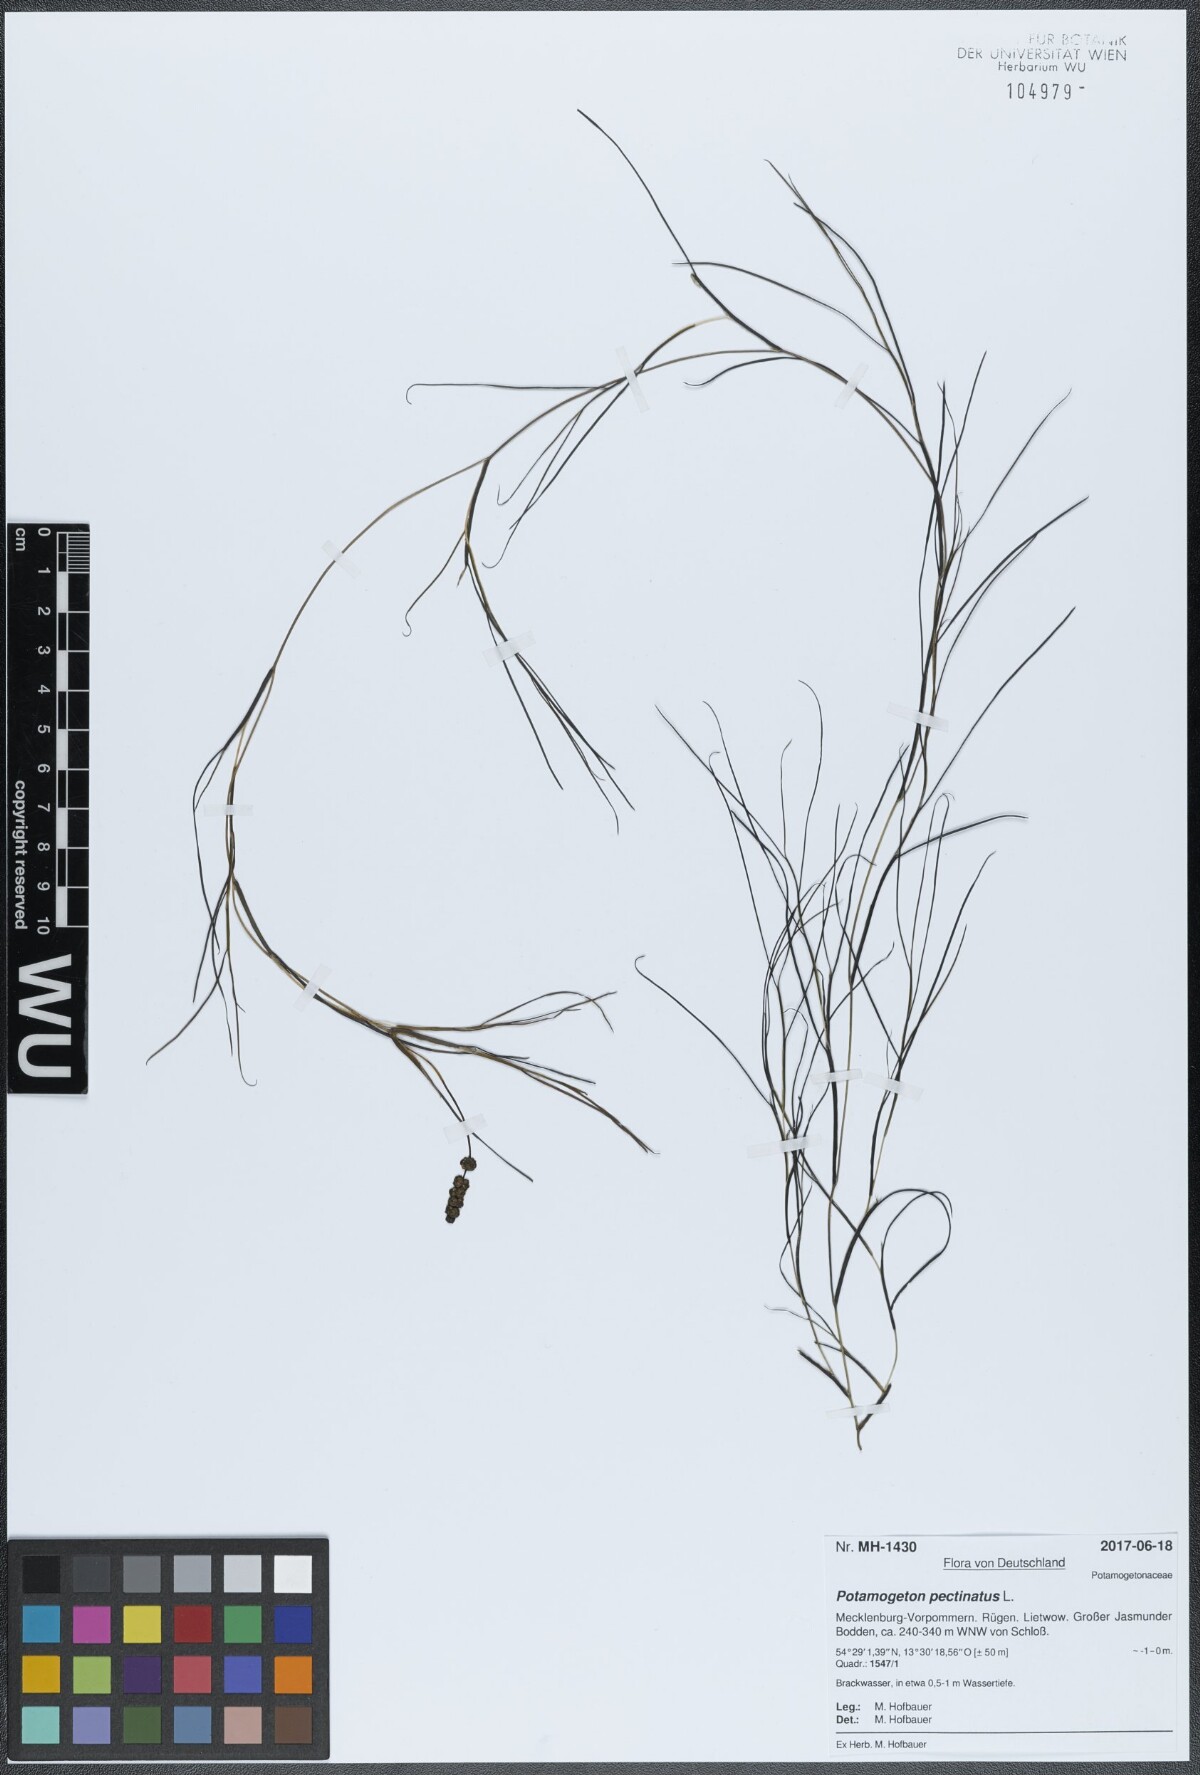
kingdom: Plantae
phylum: Tracheophyta
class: Liliopsida
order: Alismatales
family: Potamogetonaceae
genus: Stuckenia
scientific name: Stuckenia pectinata
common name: Sago pondweed
